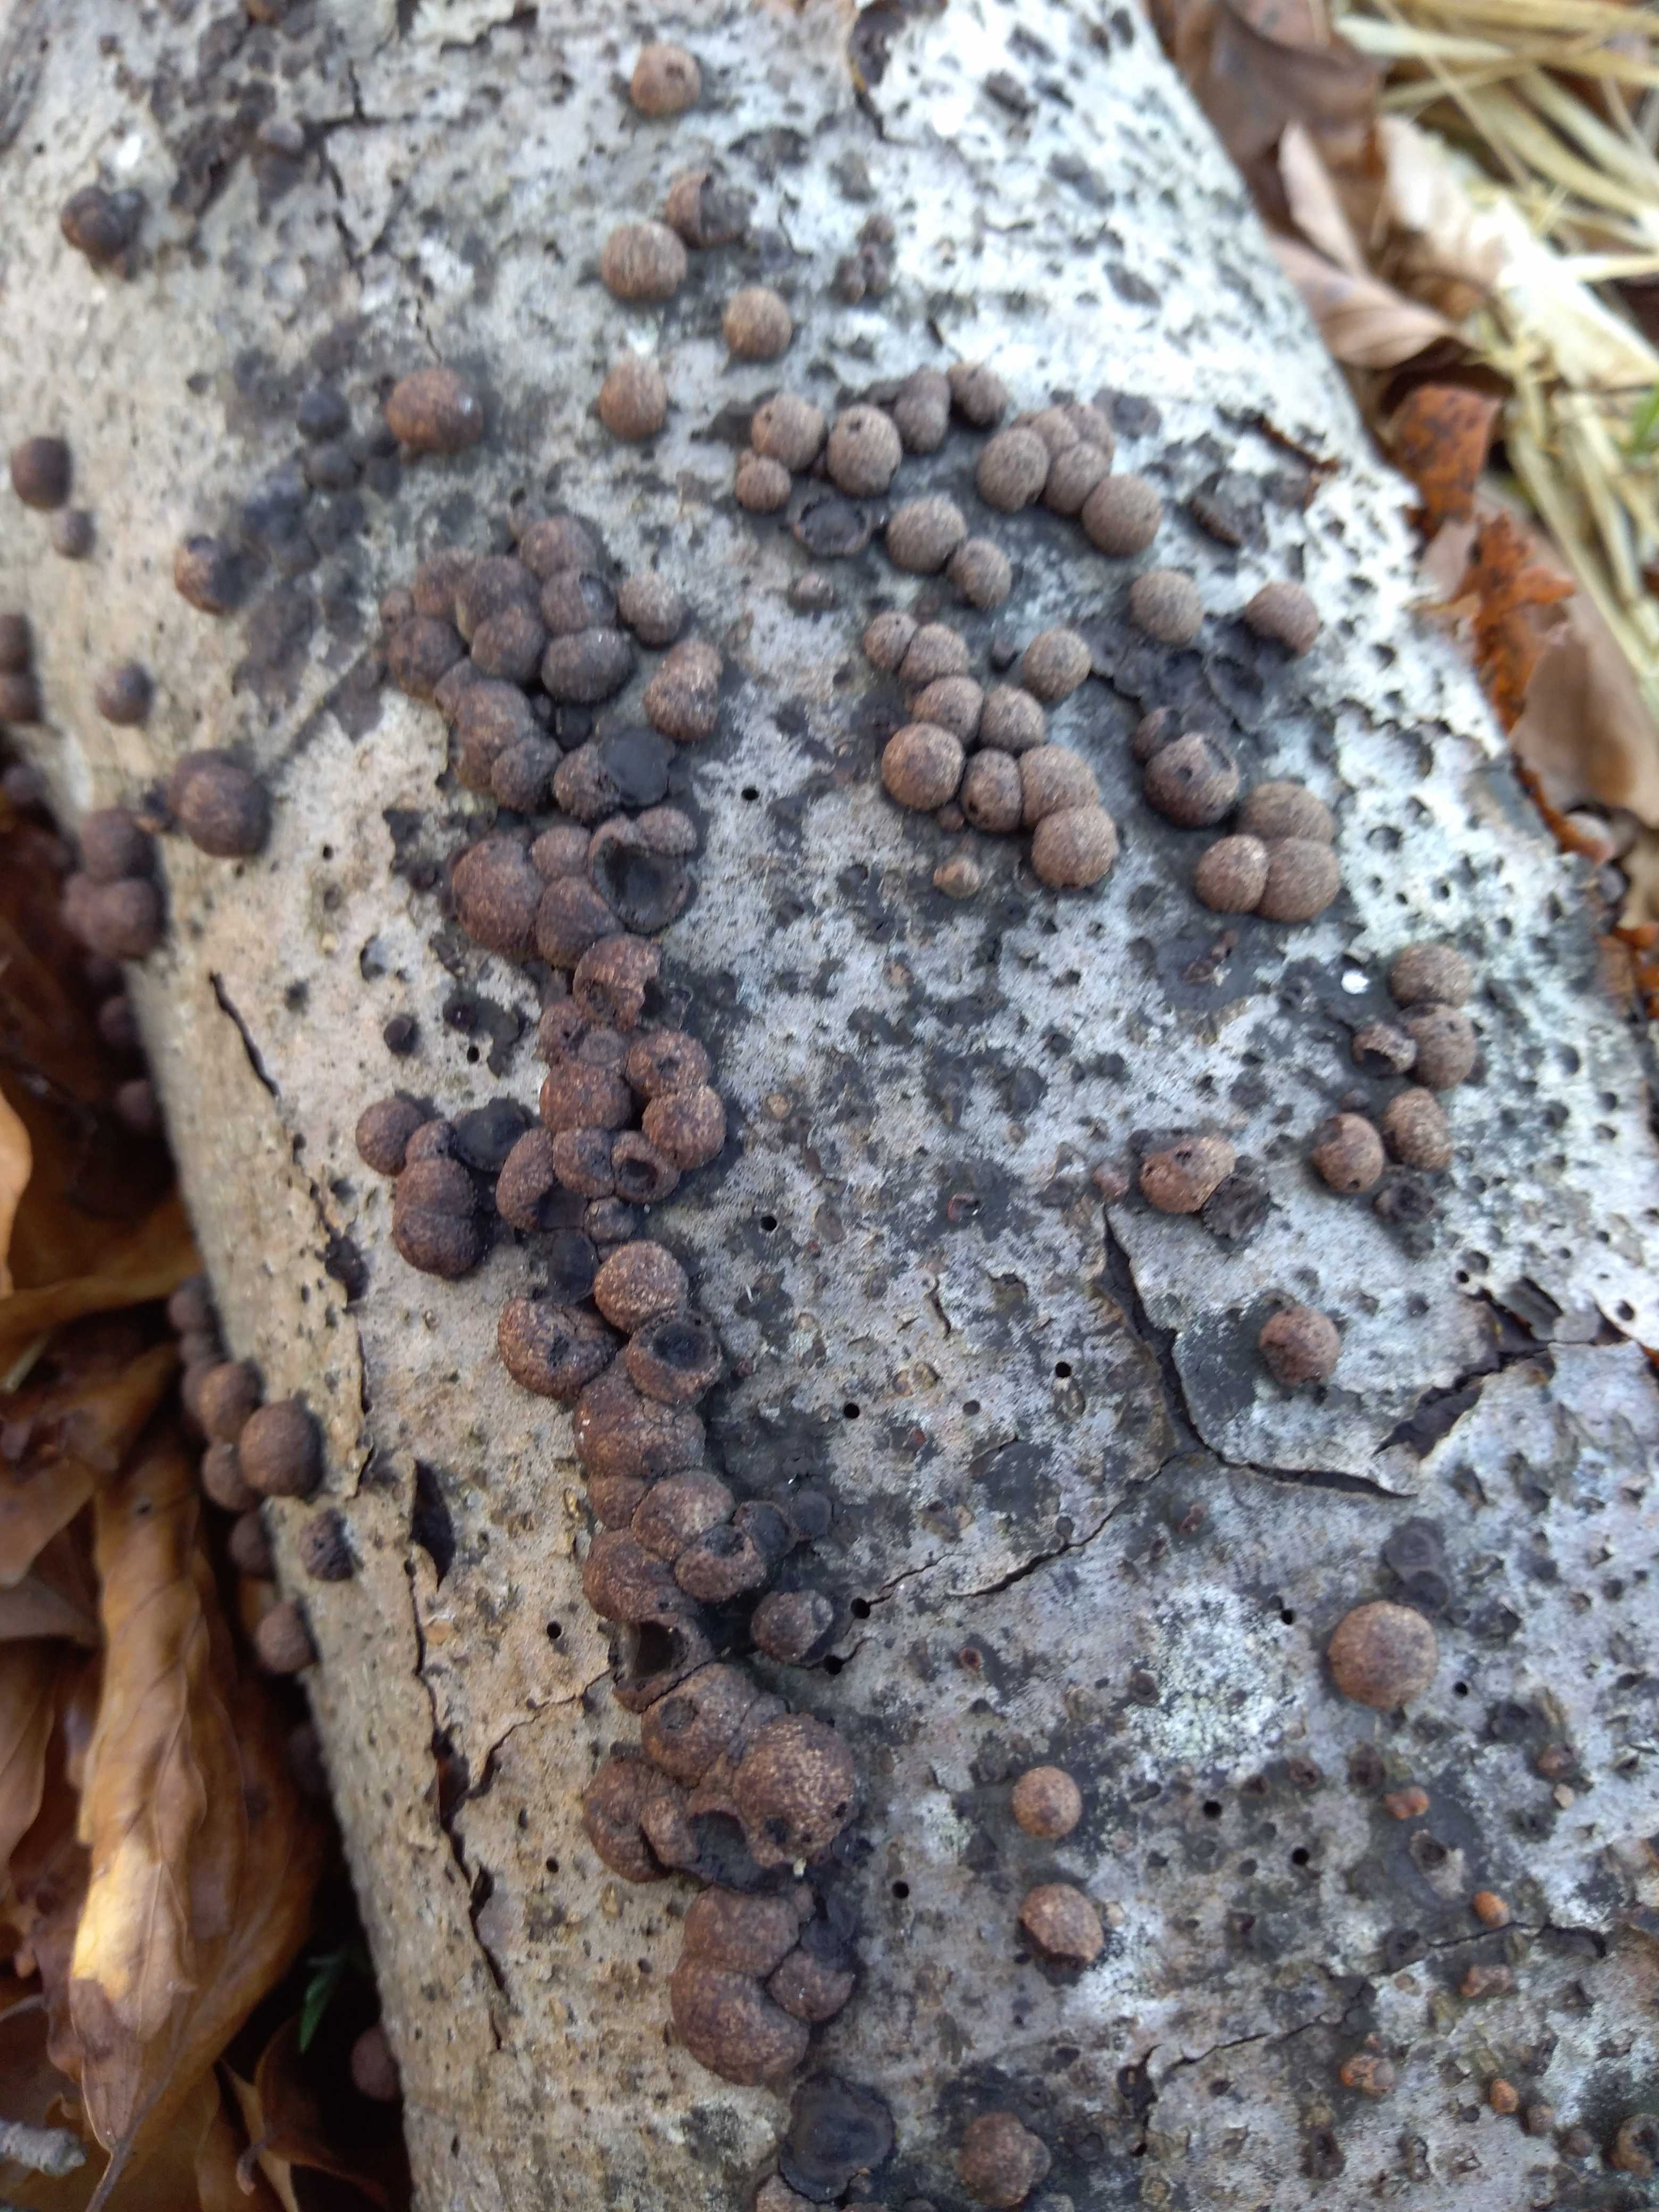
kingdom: Fungi
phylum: Ascomycota
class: Sordariomycetes
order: Xylariales
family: Hypoxylaceae
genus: Hypoxylon
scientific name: Hypoxylon fragiforme
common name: kuljordbær
